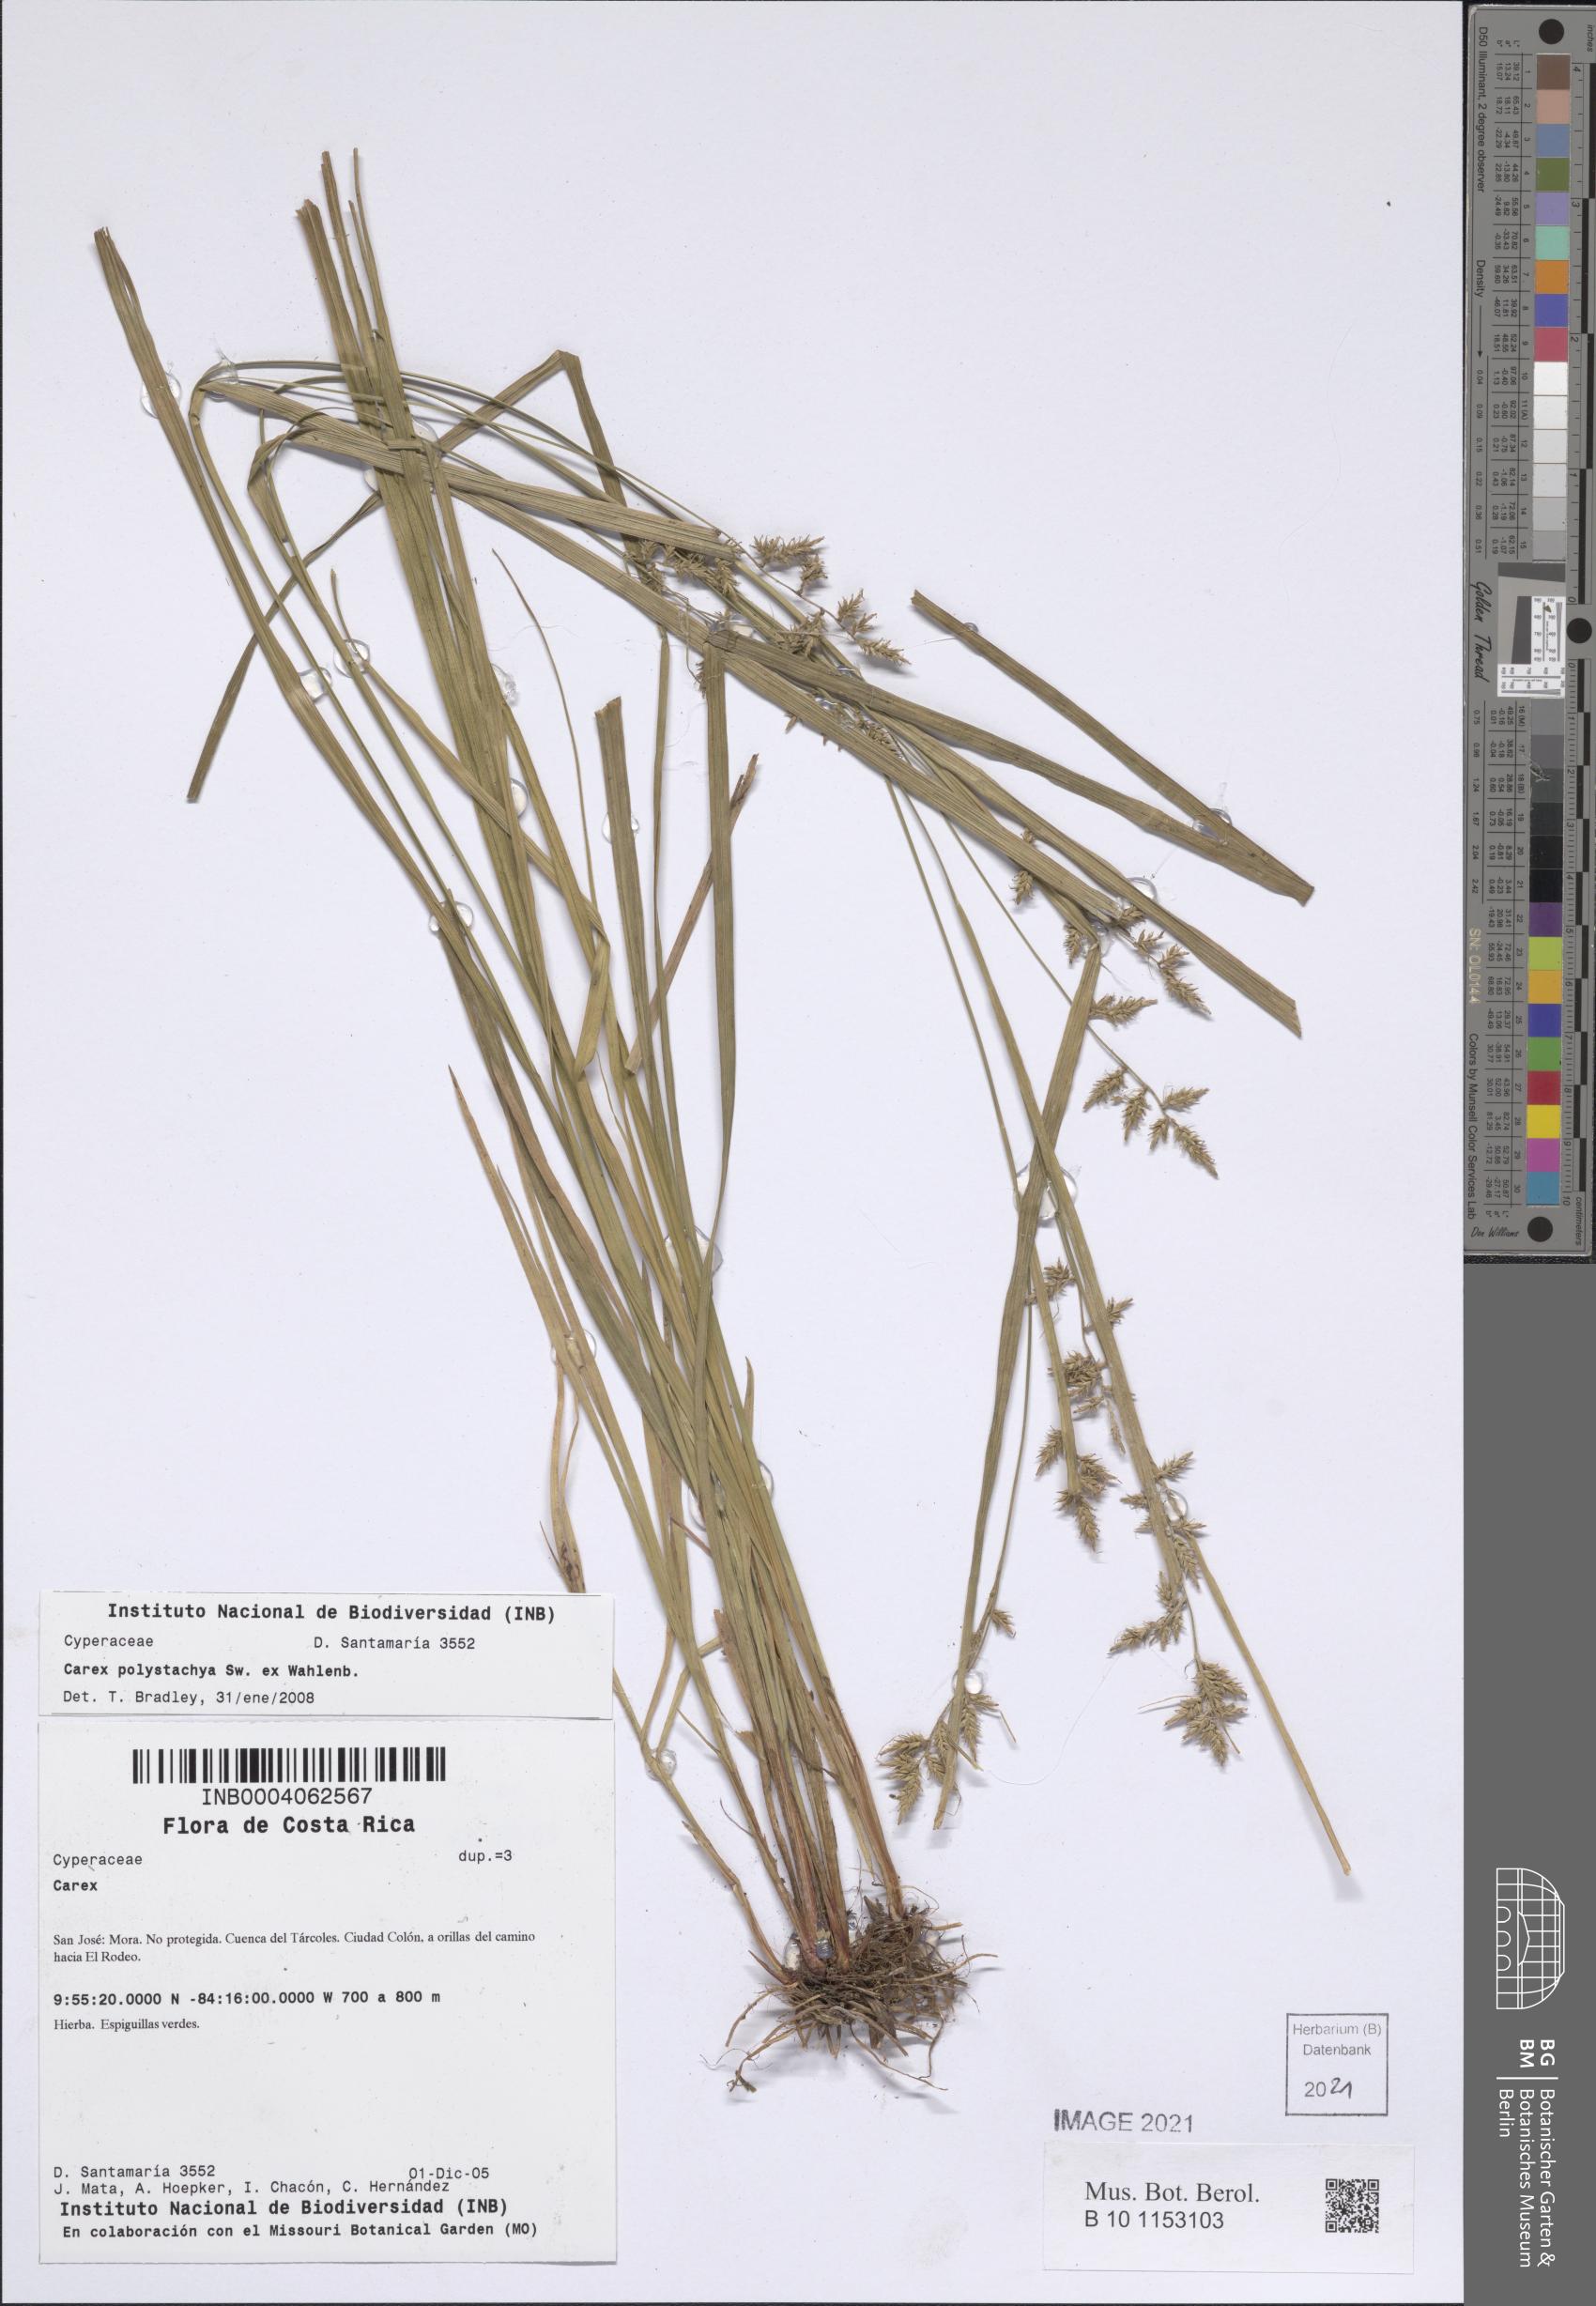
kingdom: Plantae
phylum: Tracheophyta
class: Liliopsida
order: Poales
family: Cyperaceae
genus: Carex
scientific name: Carex polystachya
